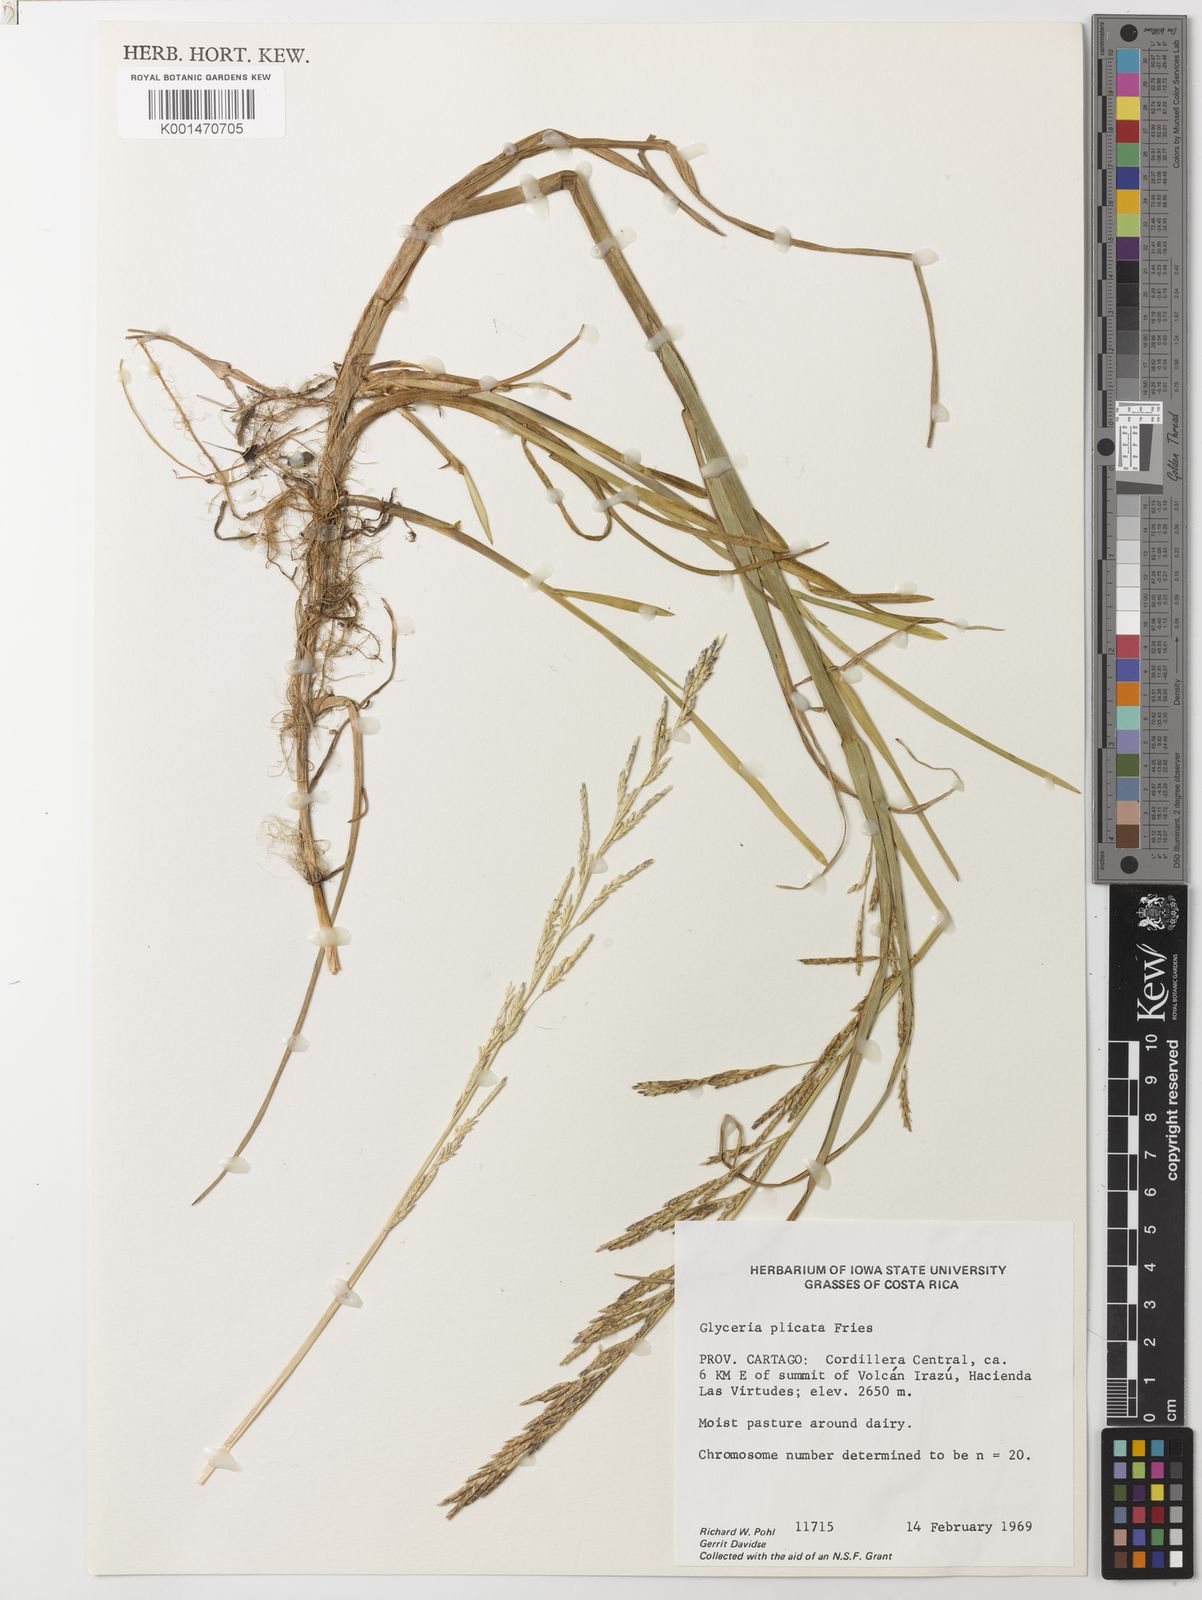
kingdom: Plantae
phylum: Tracheophyta
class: Liliopsida
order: Poales
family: Poaceae
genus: Glyceria
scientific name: Glyceria notata
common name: Plicate sweet-grass
